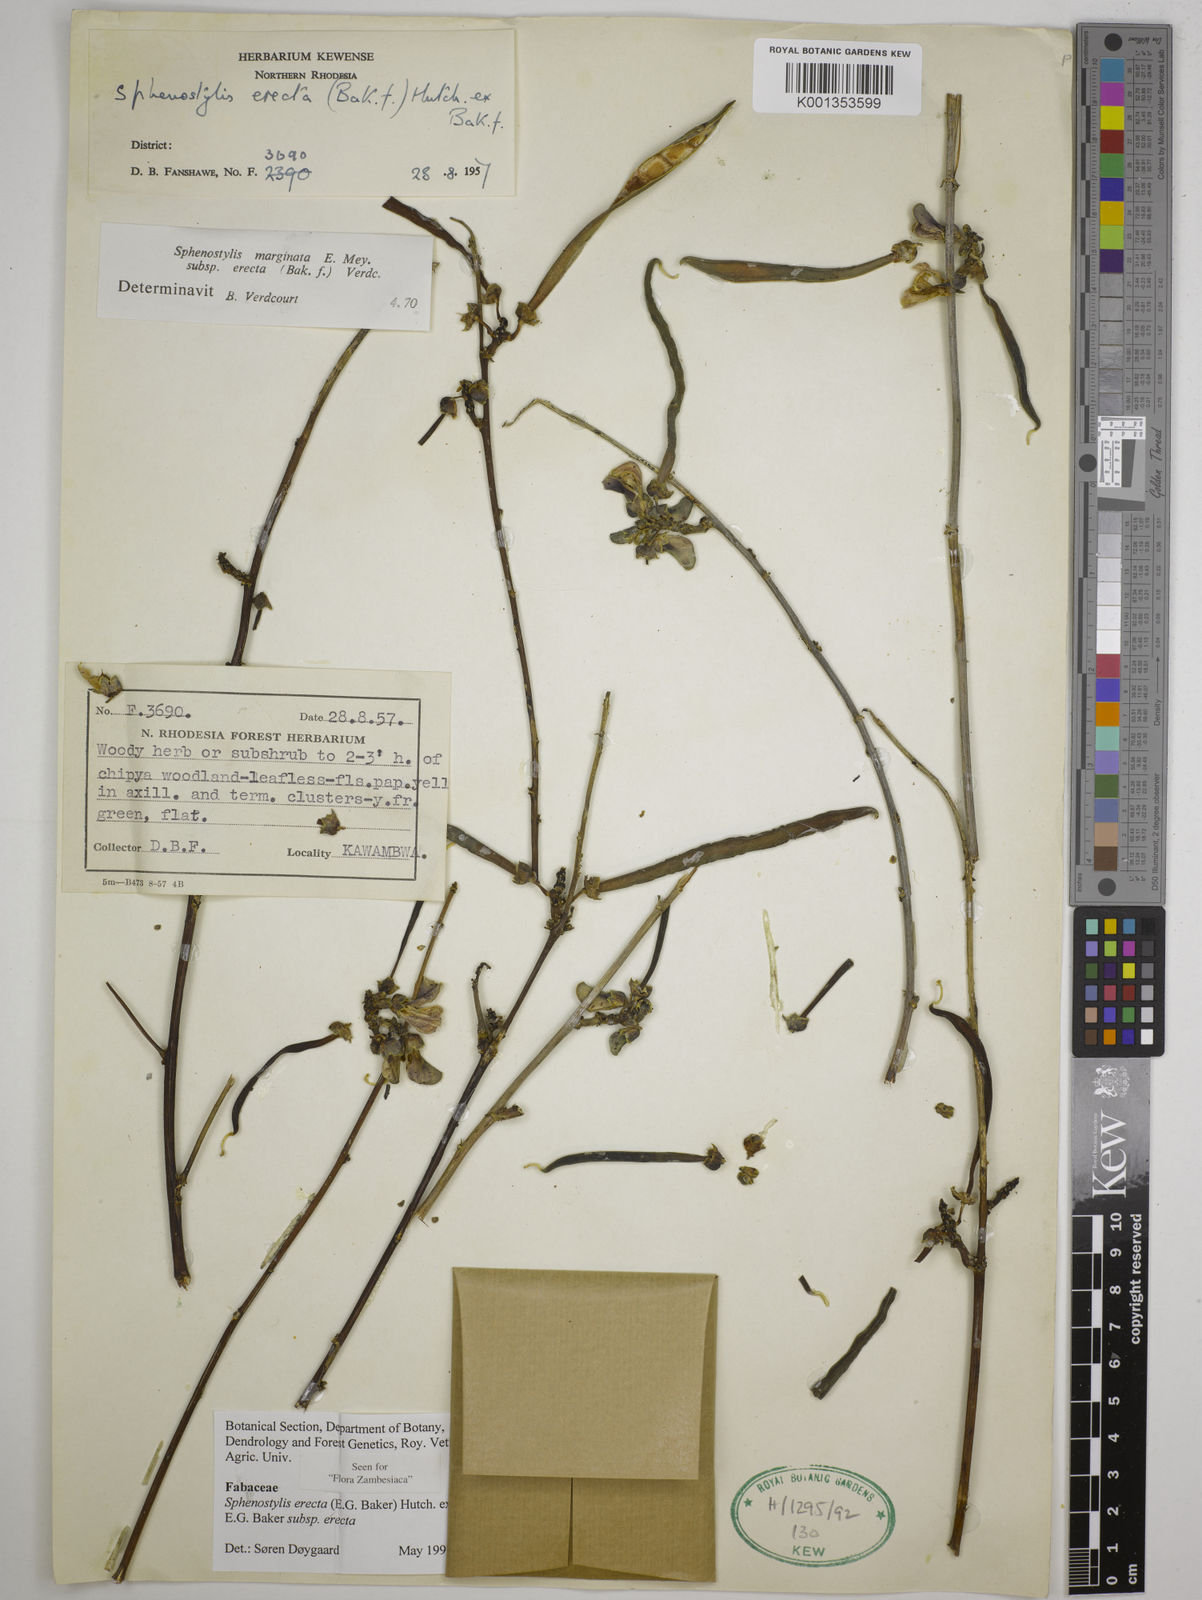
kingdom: Plantae
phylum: Tracheophyta
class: Magnoliopsida
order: Fabales
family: Fabaceae
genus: Sphenostylis
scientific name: Sphenostylis erecta
